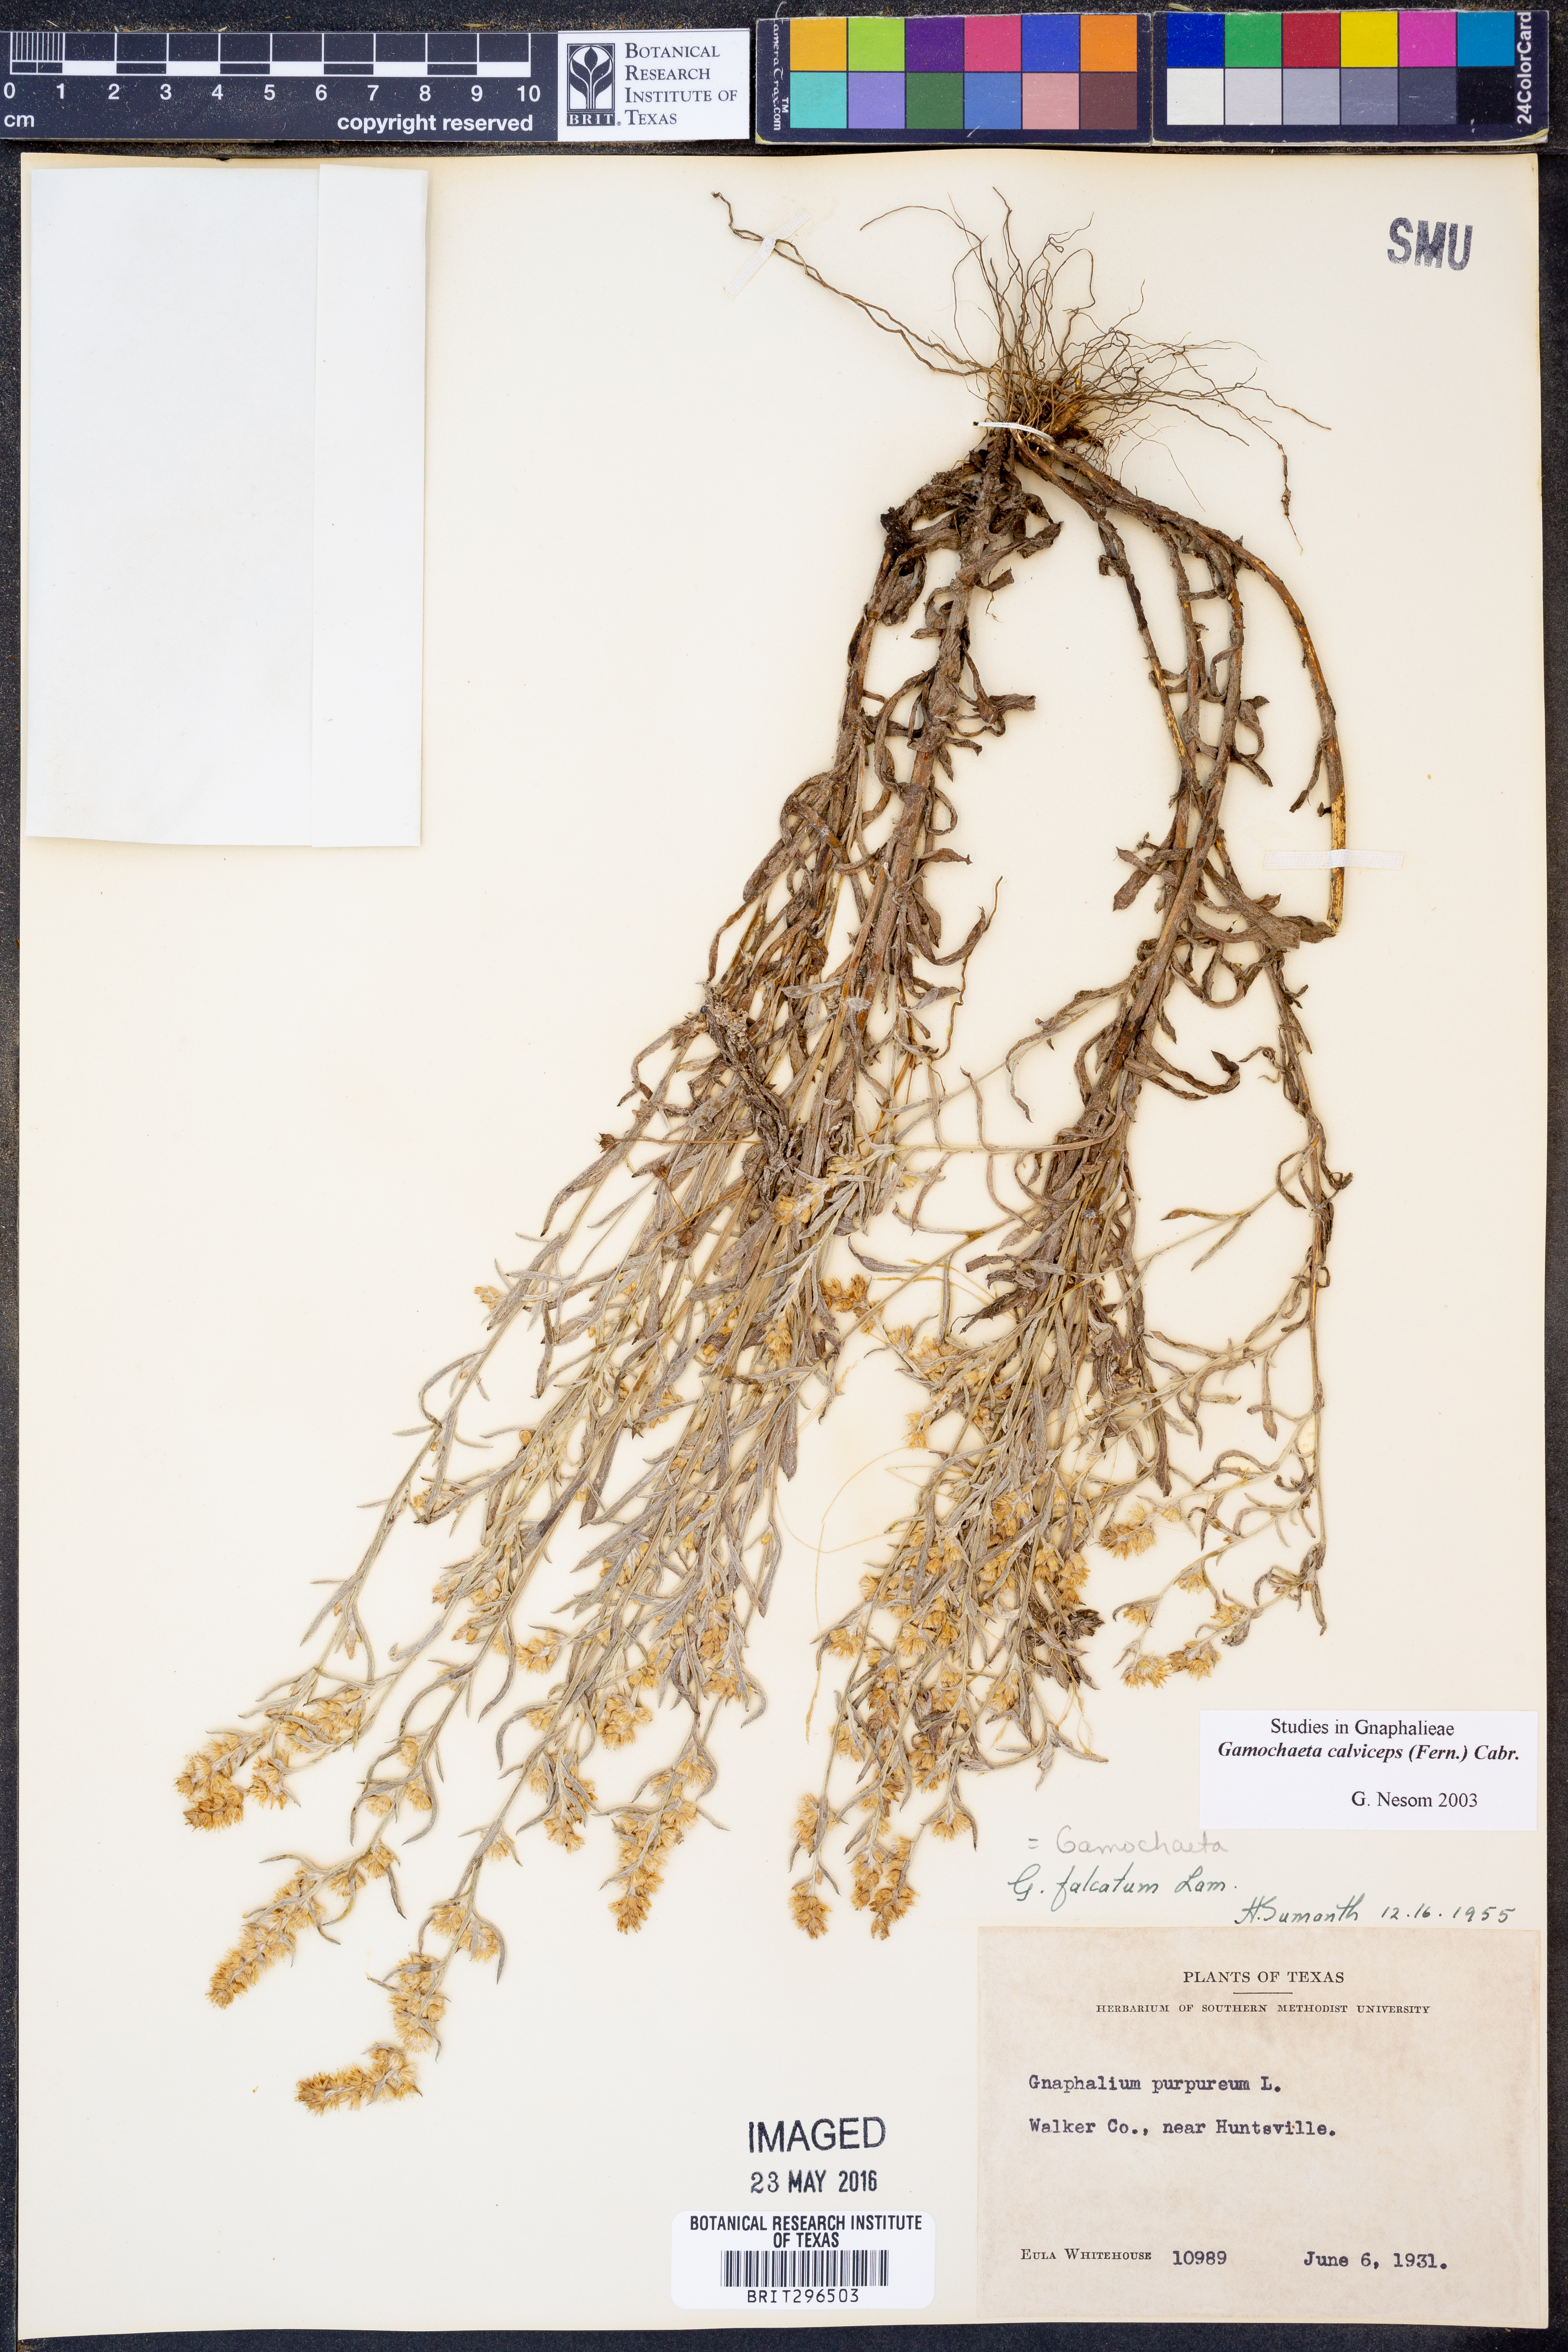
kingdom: Plantae
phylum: Tracheophyta
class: Magnoliopsida
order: Asterales
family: Asteraceae
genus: Gamochaeta
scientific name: Gamochaeta calviceps
